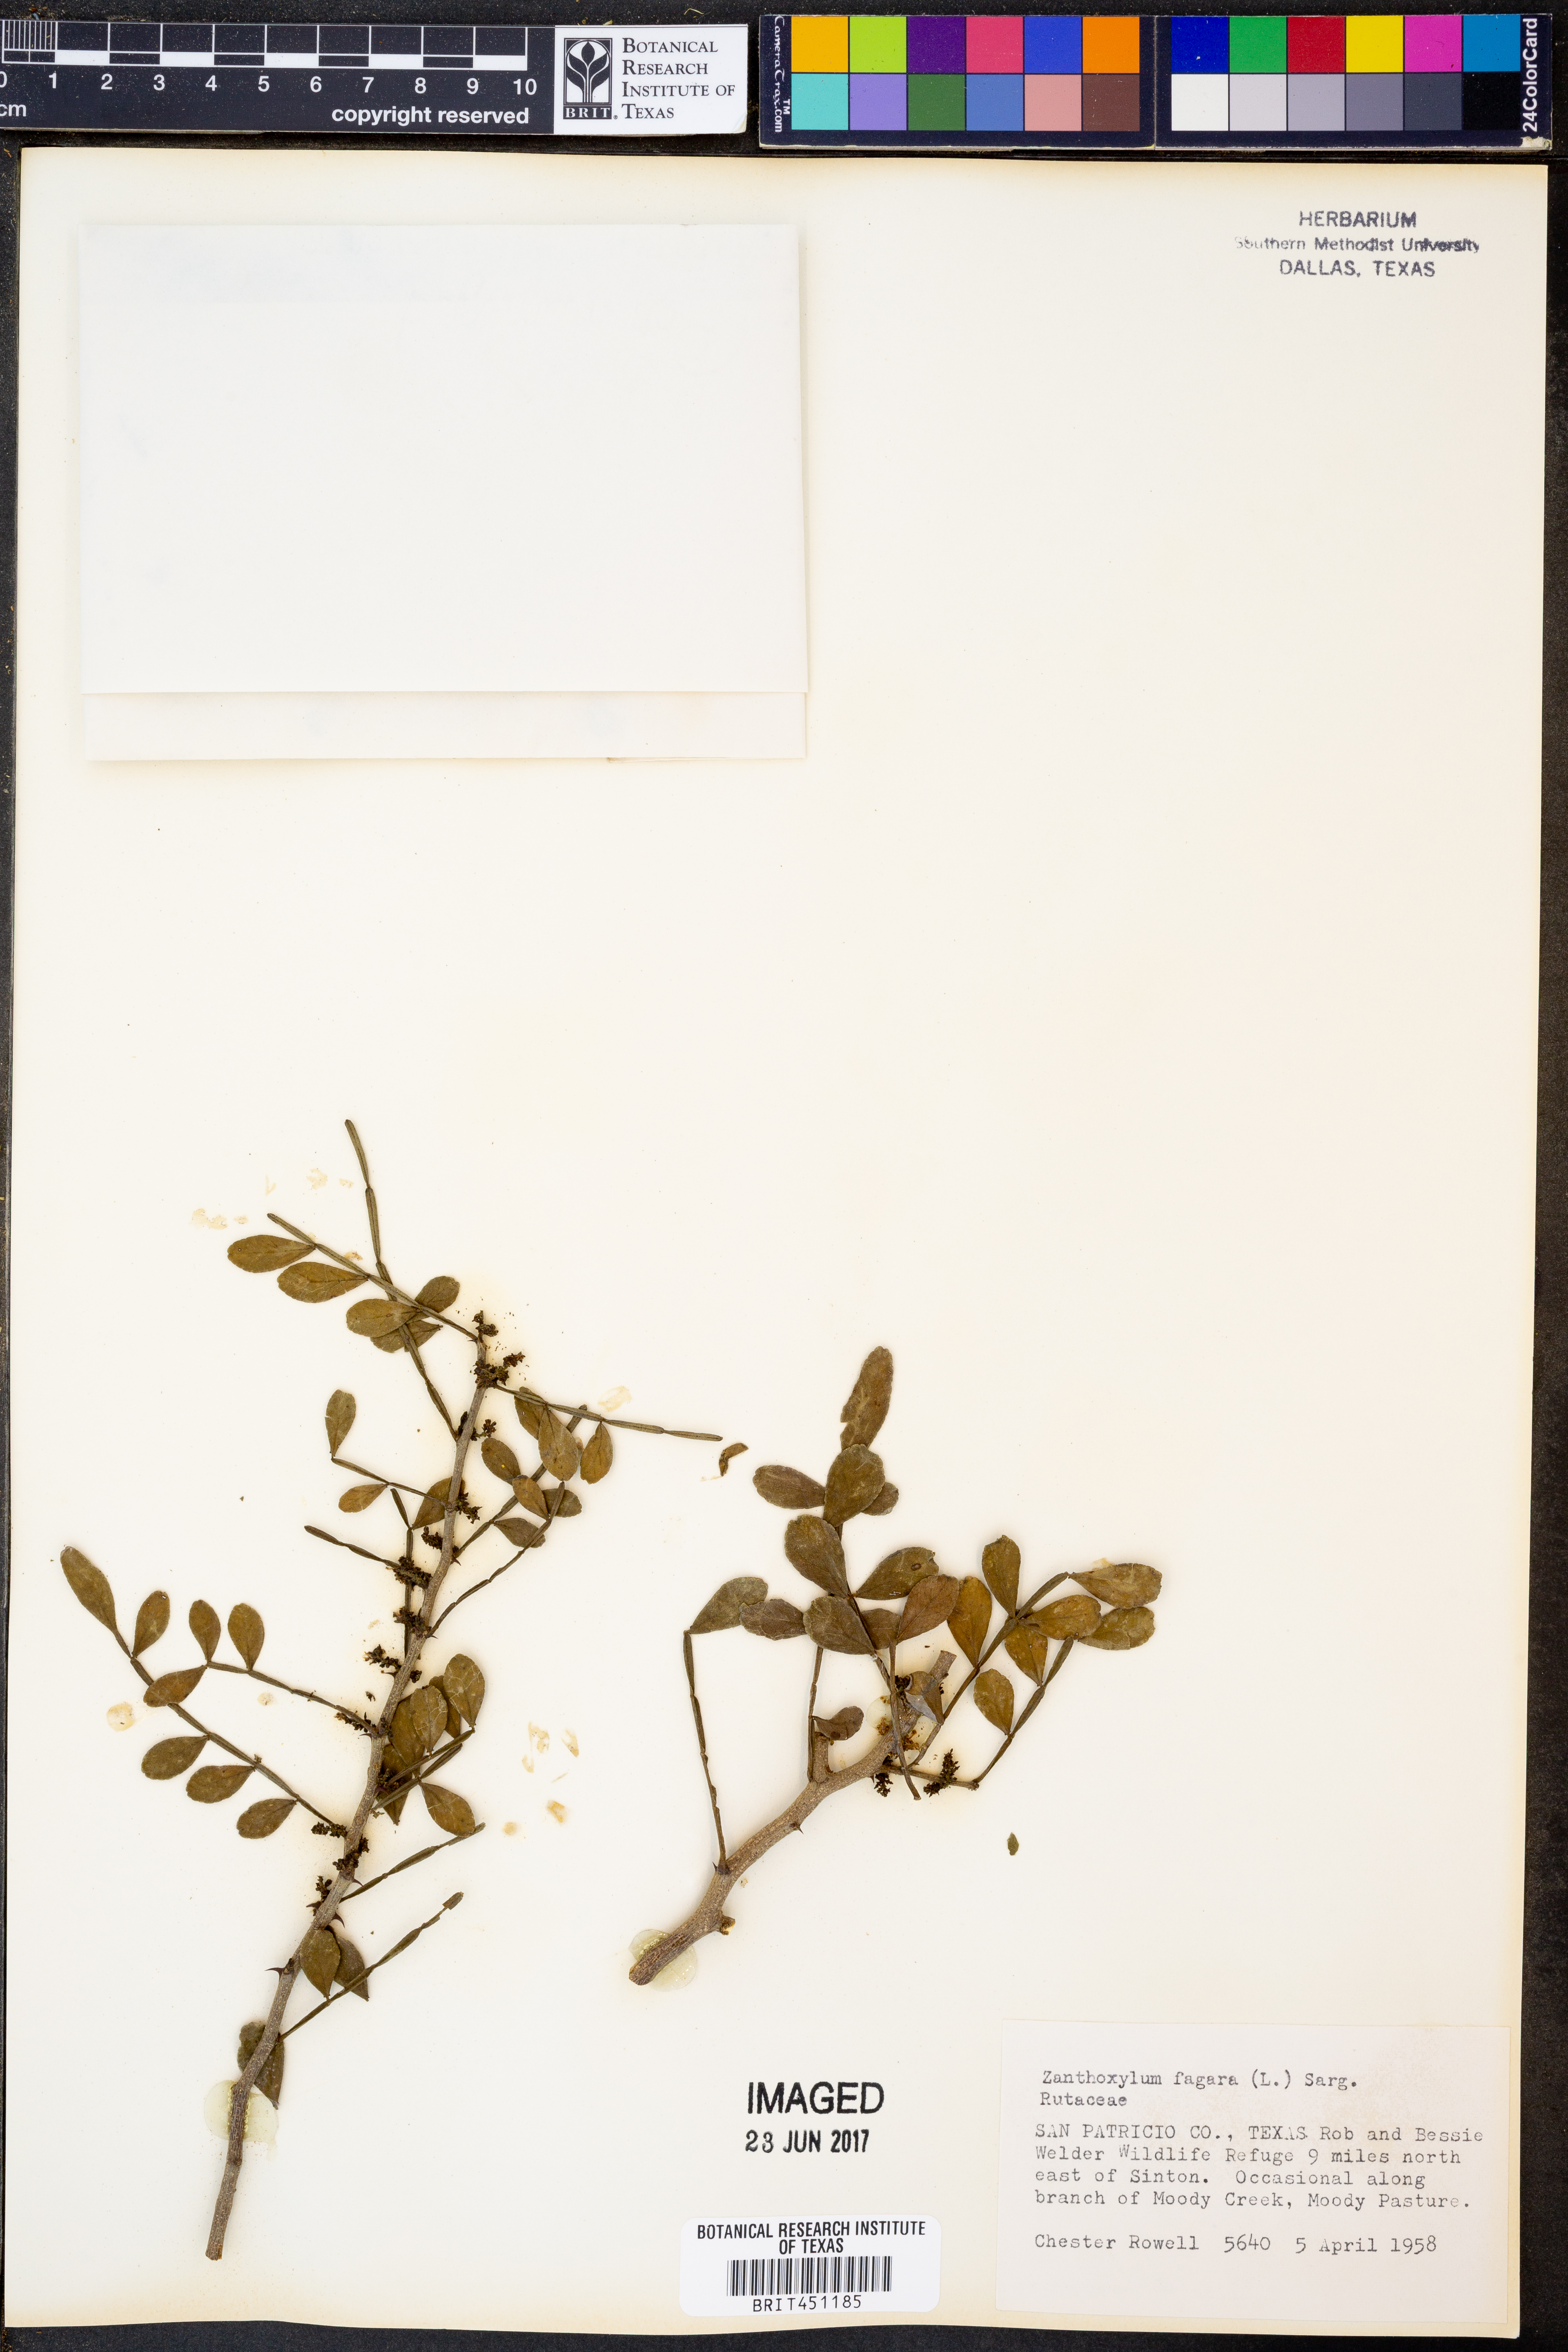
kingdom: Plantae
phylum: Tracheophyta
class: Magnoliopsida
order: Sapindales
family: Rutaceae
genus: Zanthoxylum
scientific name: Zanthoxylum fagara
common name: Lime prickly-ash
